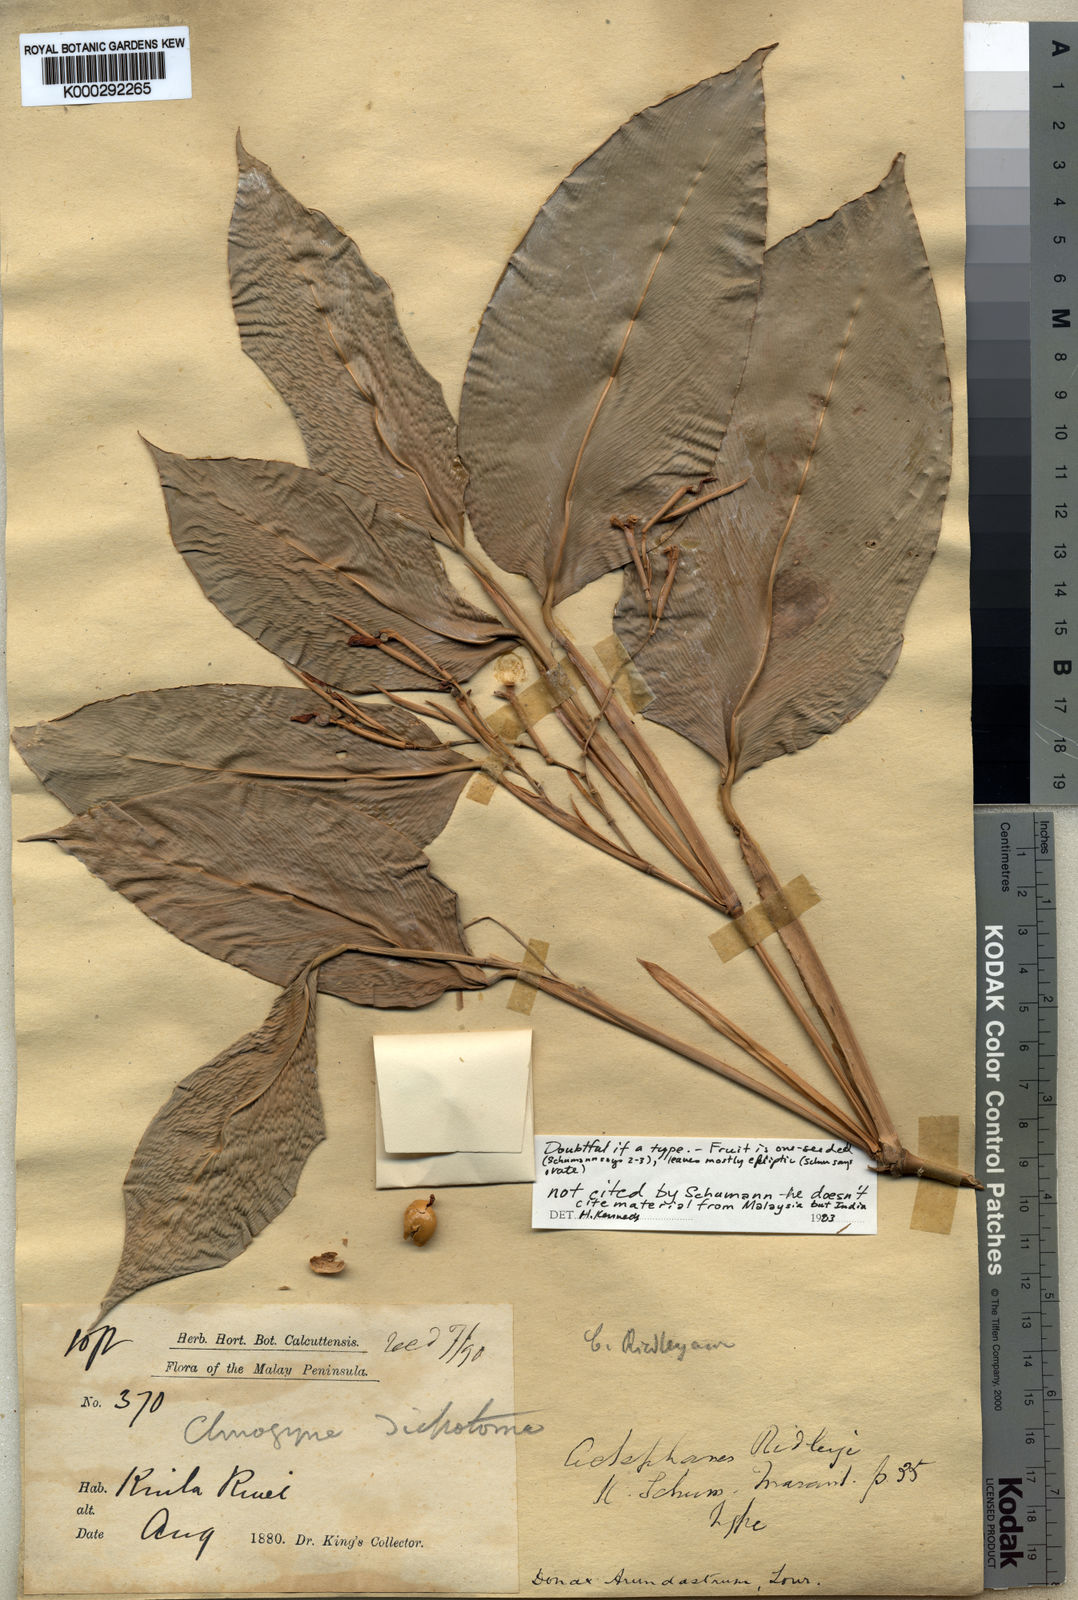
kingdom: Plantae
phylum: Tracheophyta
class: Liliopsida
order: Zingiberales
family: Marantaceae
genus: Donax
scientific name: Donax
